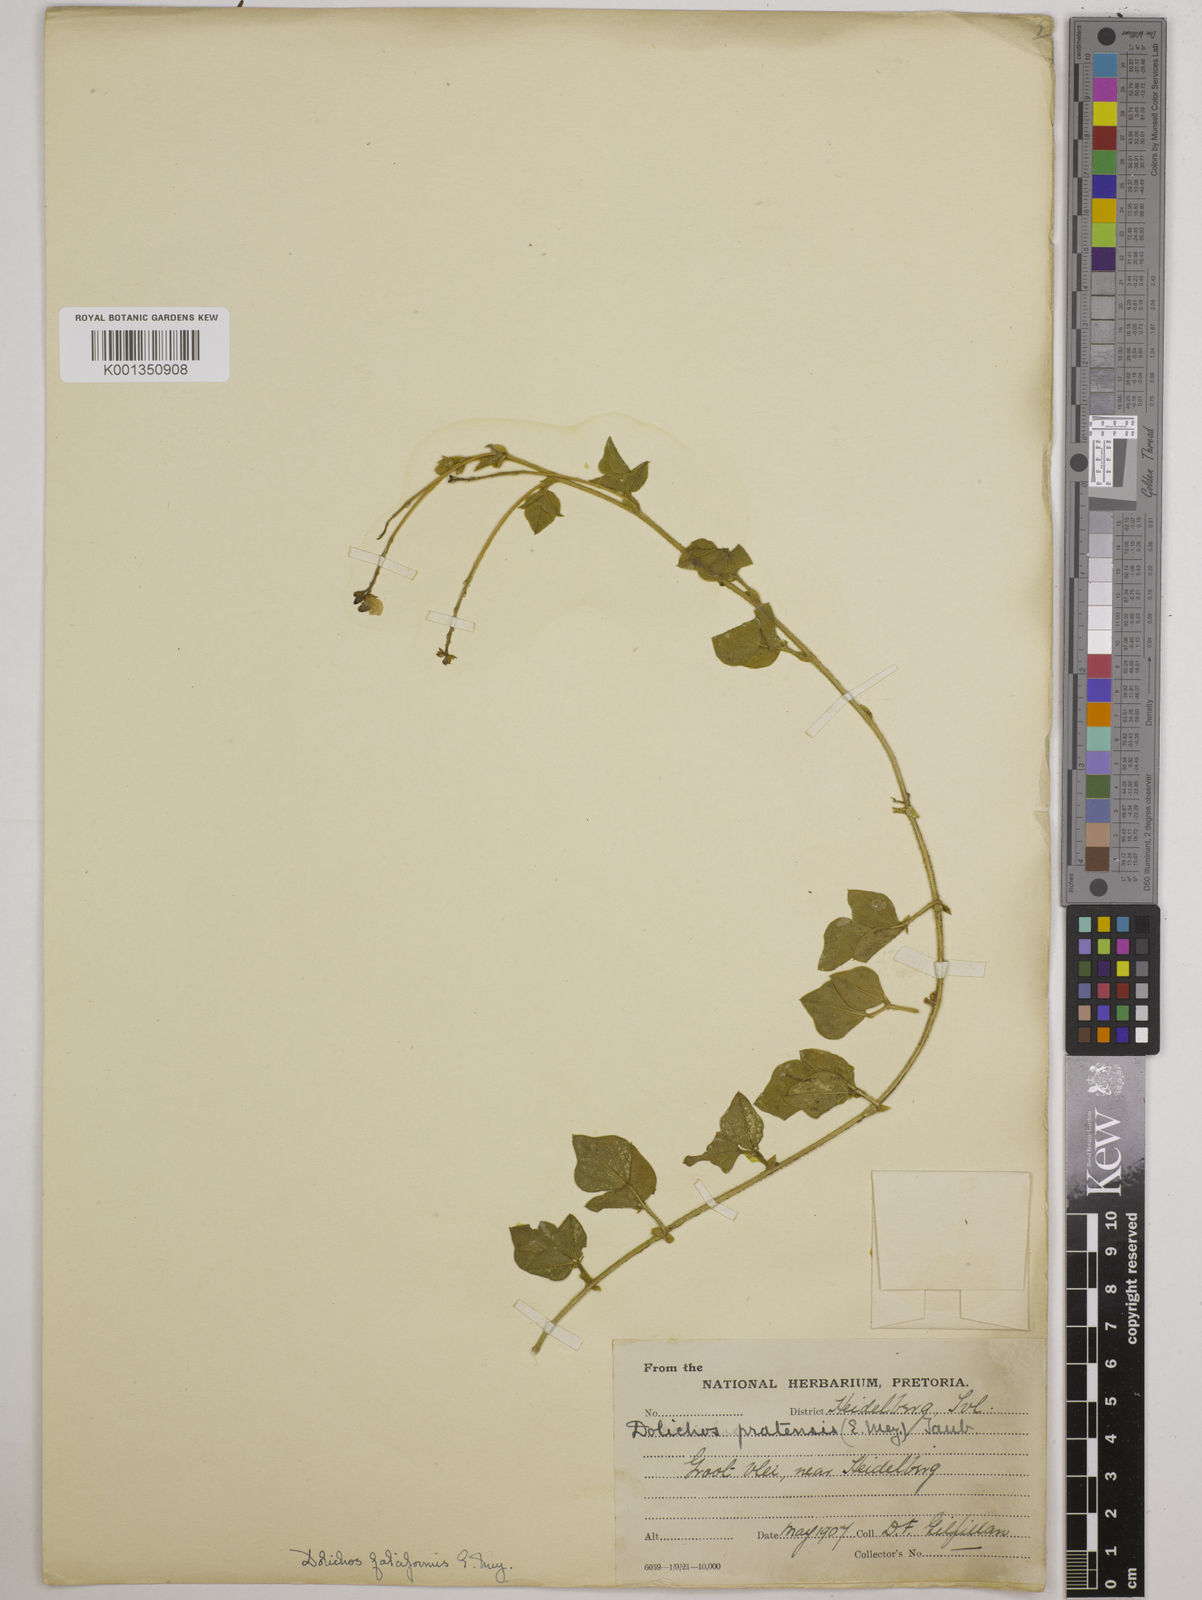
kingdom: Plantae
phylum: Tracheophyta
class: Magnoliopsida
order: Fabales
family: Fabaceae
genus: Dolichos
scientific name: Dolichos falciformis
